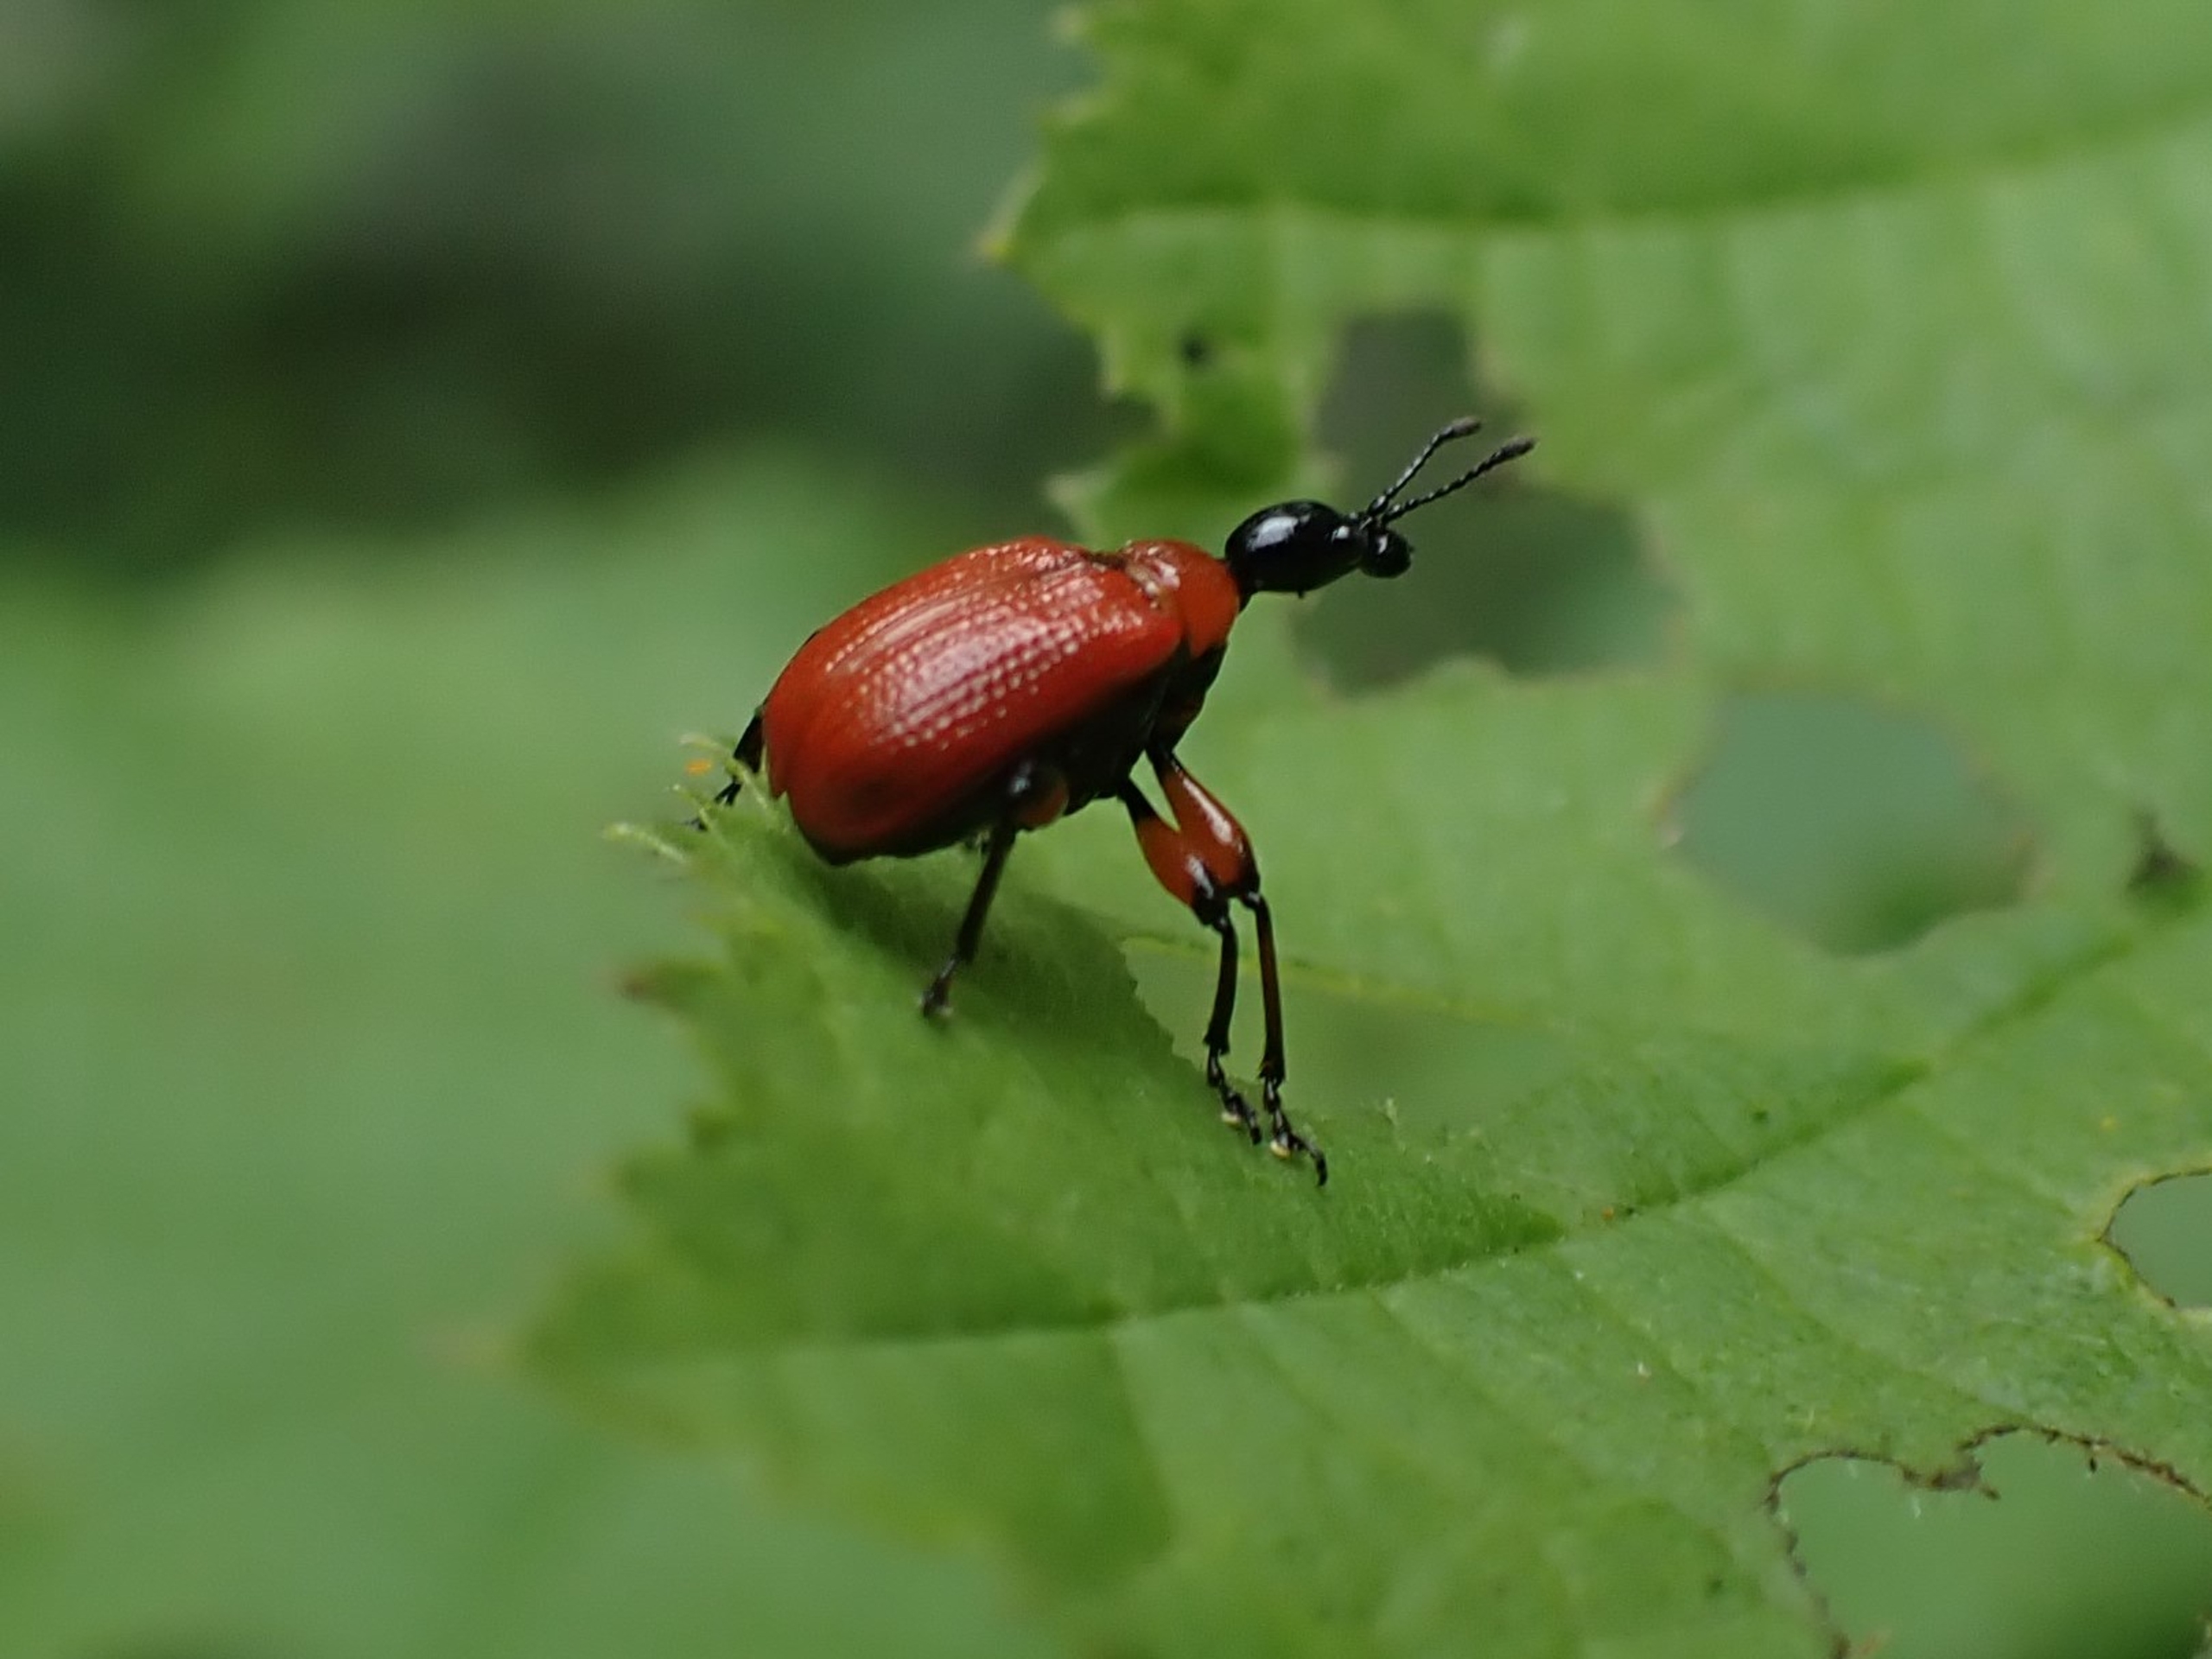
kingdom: Animalia
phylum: Arthropoda
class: Insecta
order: Coleoptera
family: Attelabidae
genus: Apoderus
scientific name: Apoderus coryli
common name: Hasselbladruller
